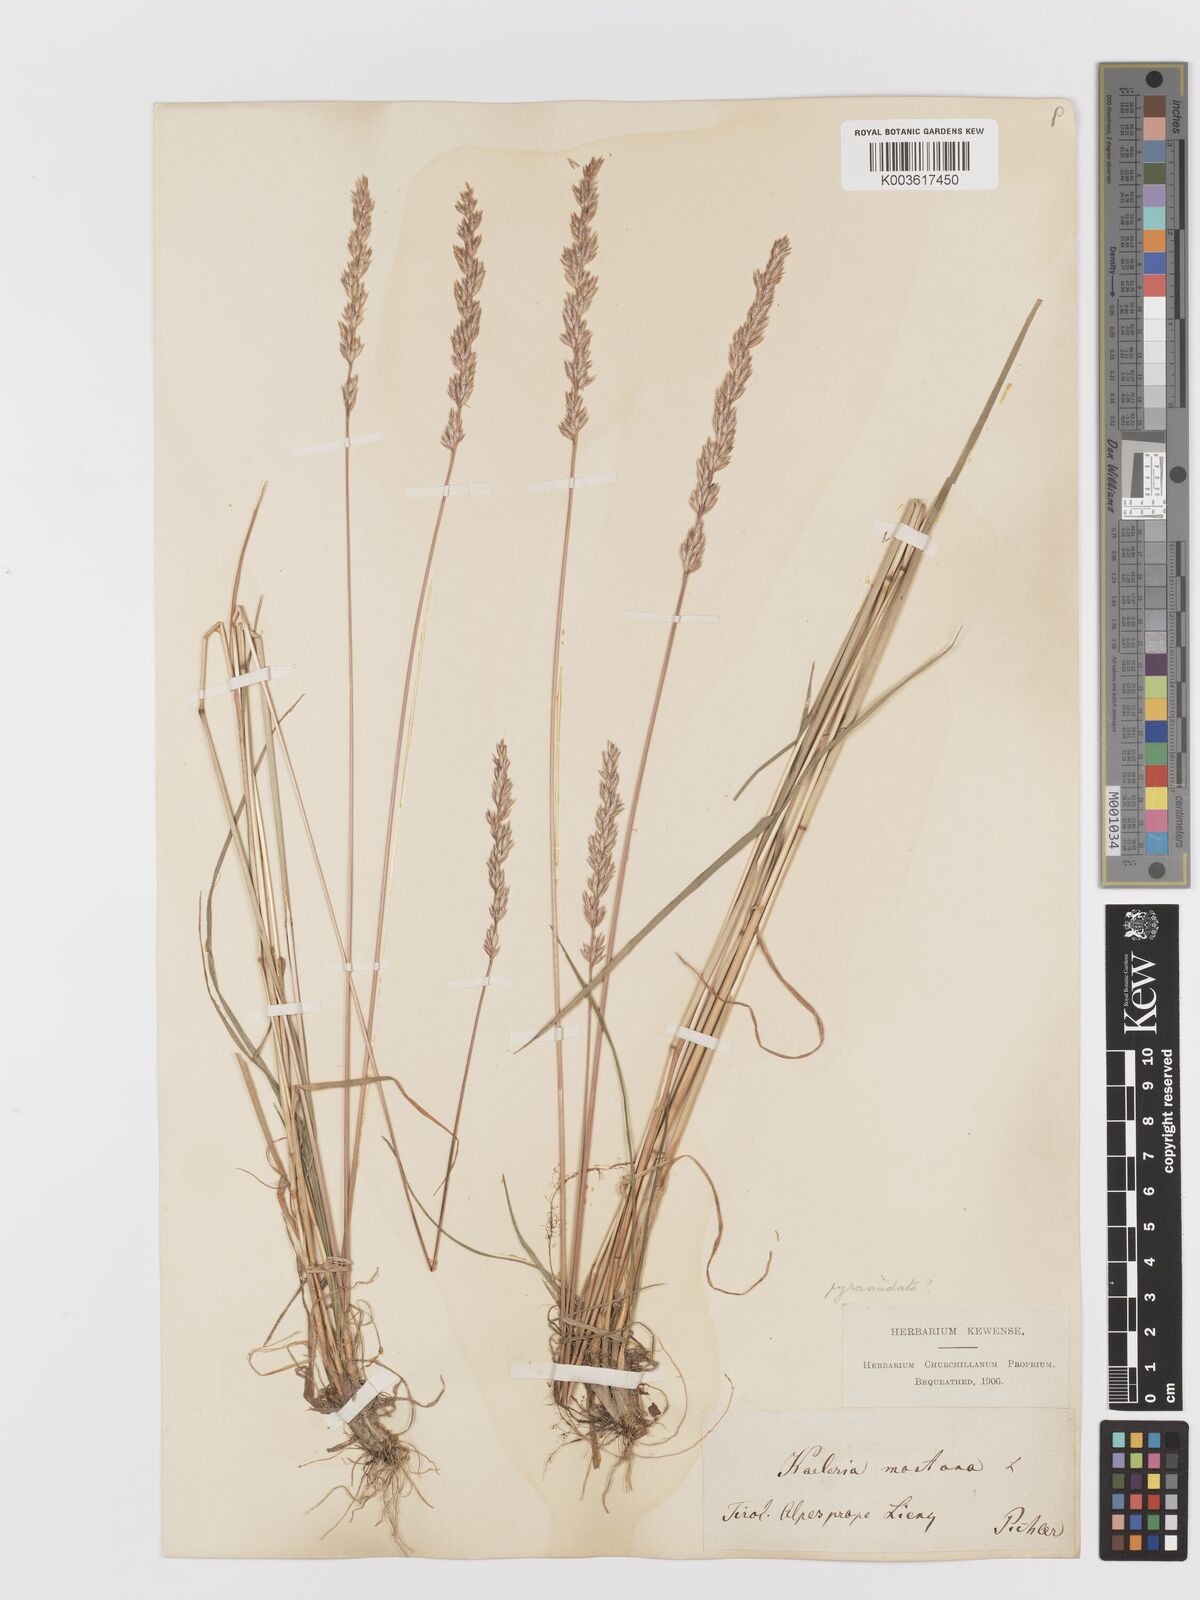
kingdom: Plantae
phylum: Tracheophyta
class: Liliopsida
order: Poales
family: Poaceae
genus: Koeleria
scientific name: Koeleria pyramidata
